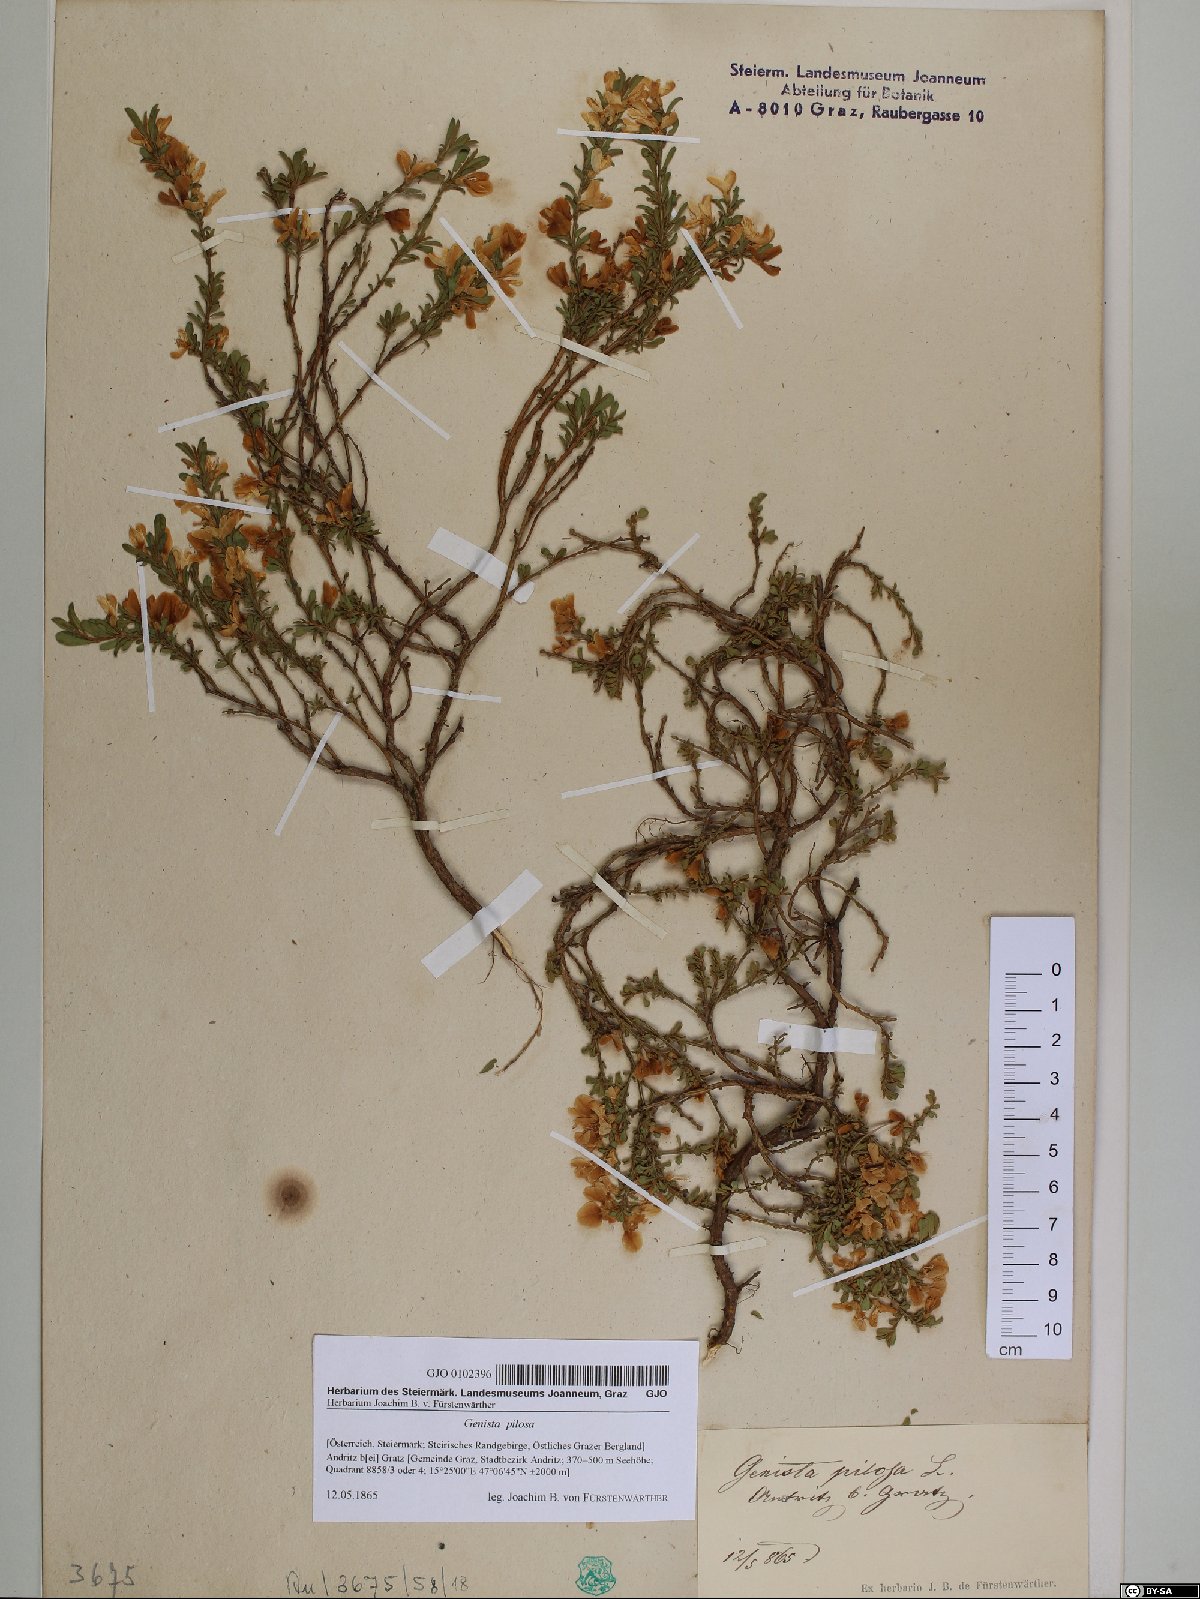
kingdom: Plantae
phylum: Tracheophyta
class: Magnoliopsida
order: Fabales
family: Fabaceae
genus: Genista
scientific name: Genista pilosa
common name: Hairy greenweed
